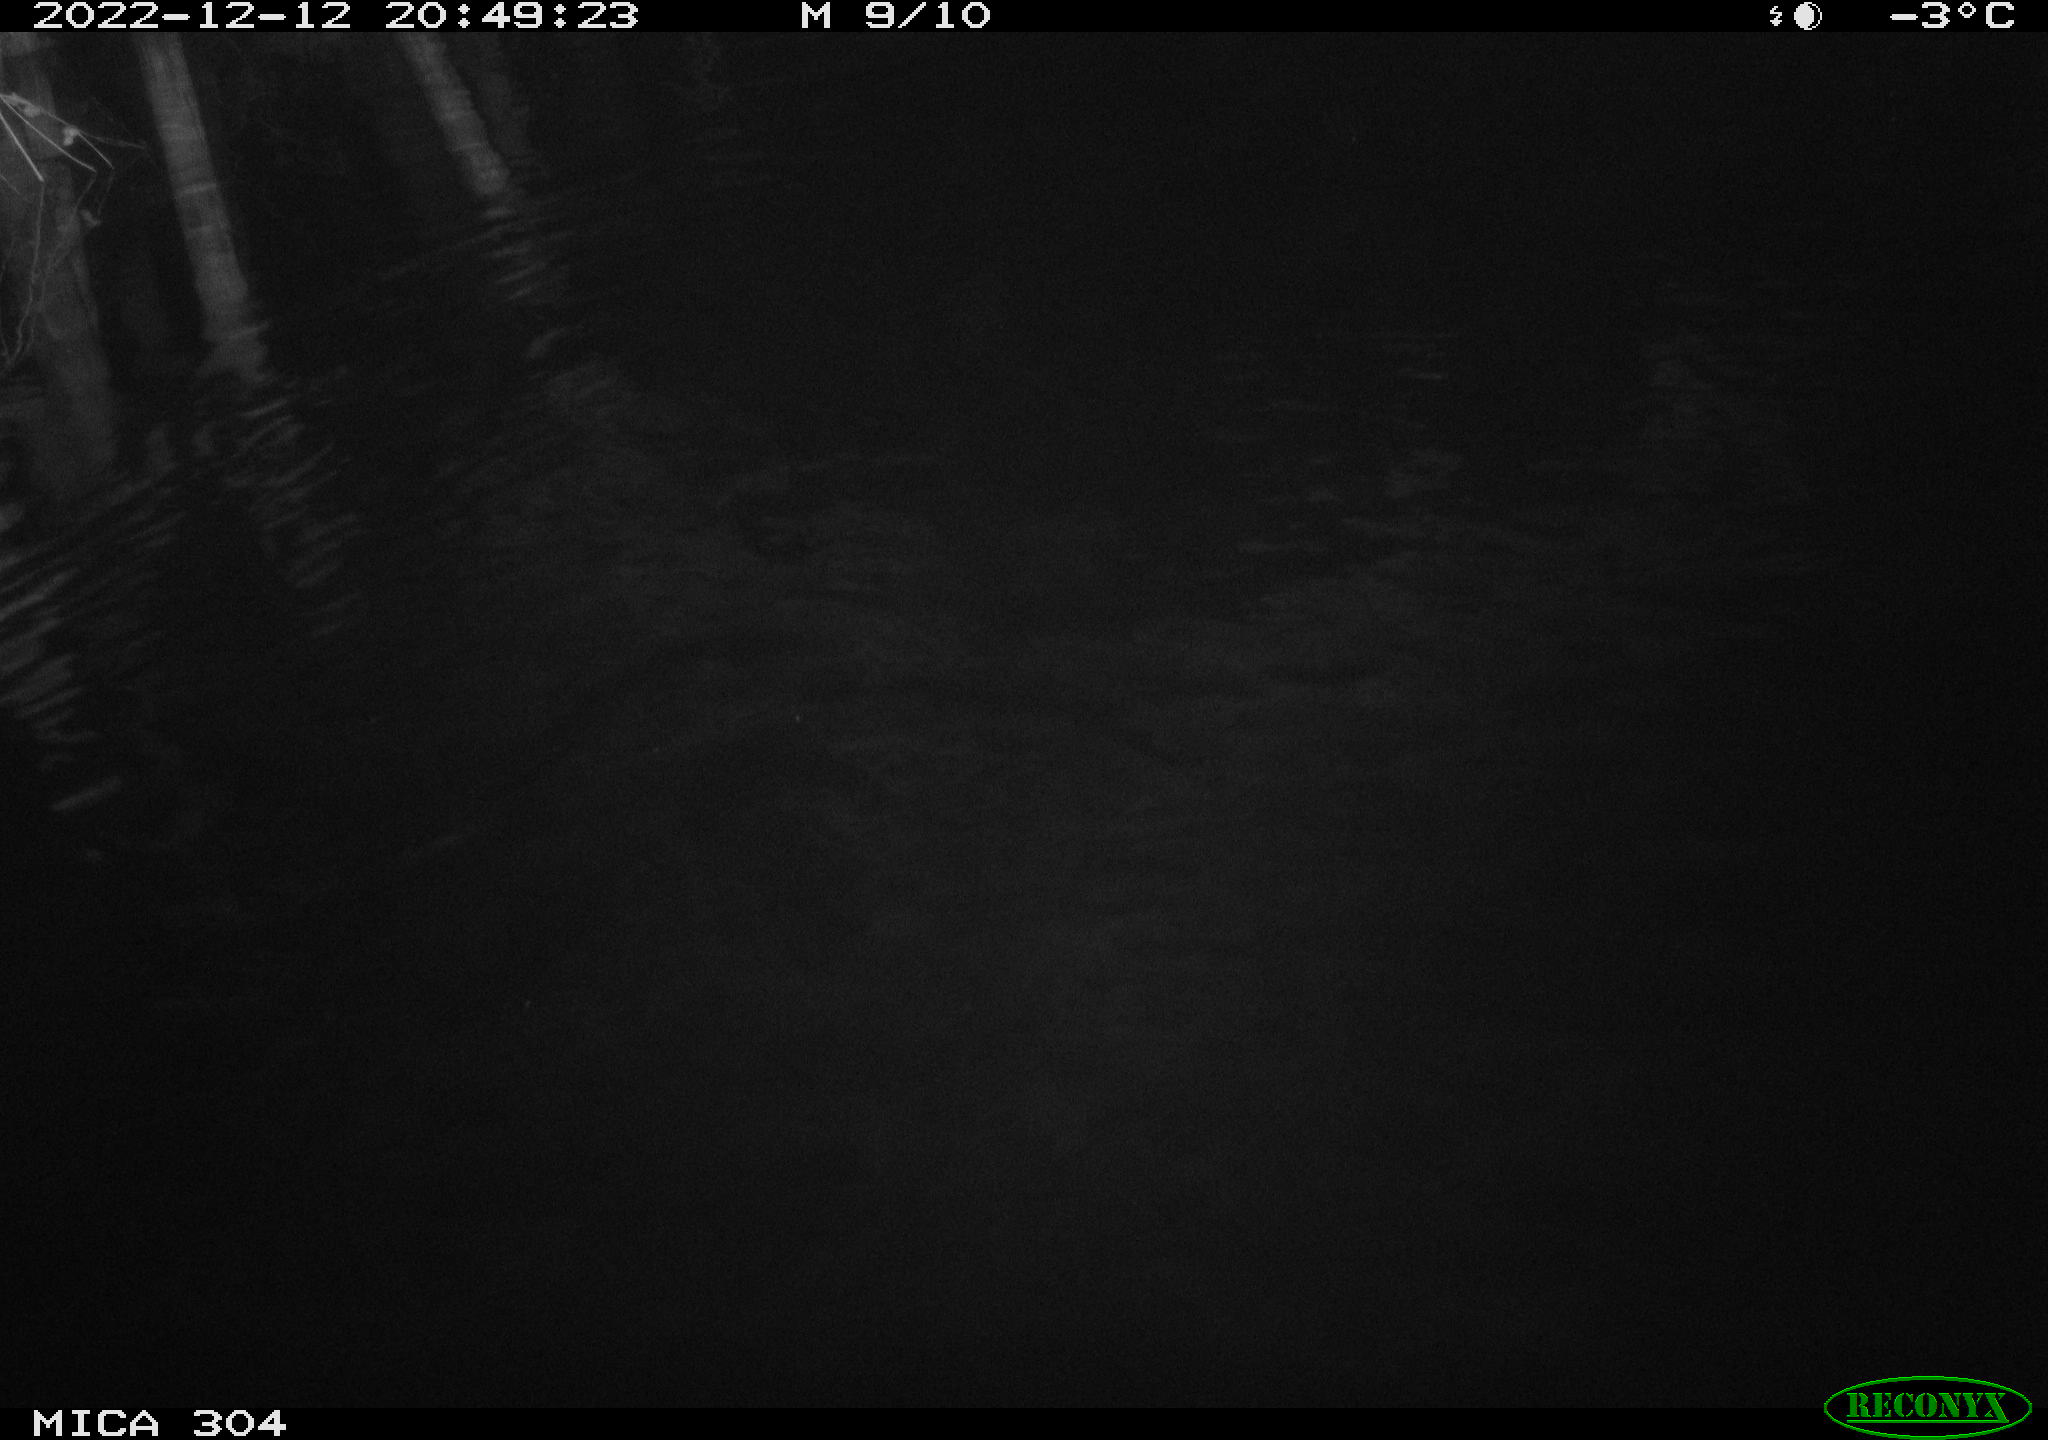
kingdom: Animalia
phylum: Chordata
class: Mammalia
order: Rodentia
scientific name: Rodentia
